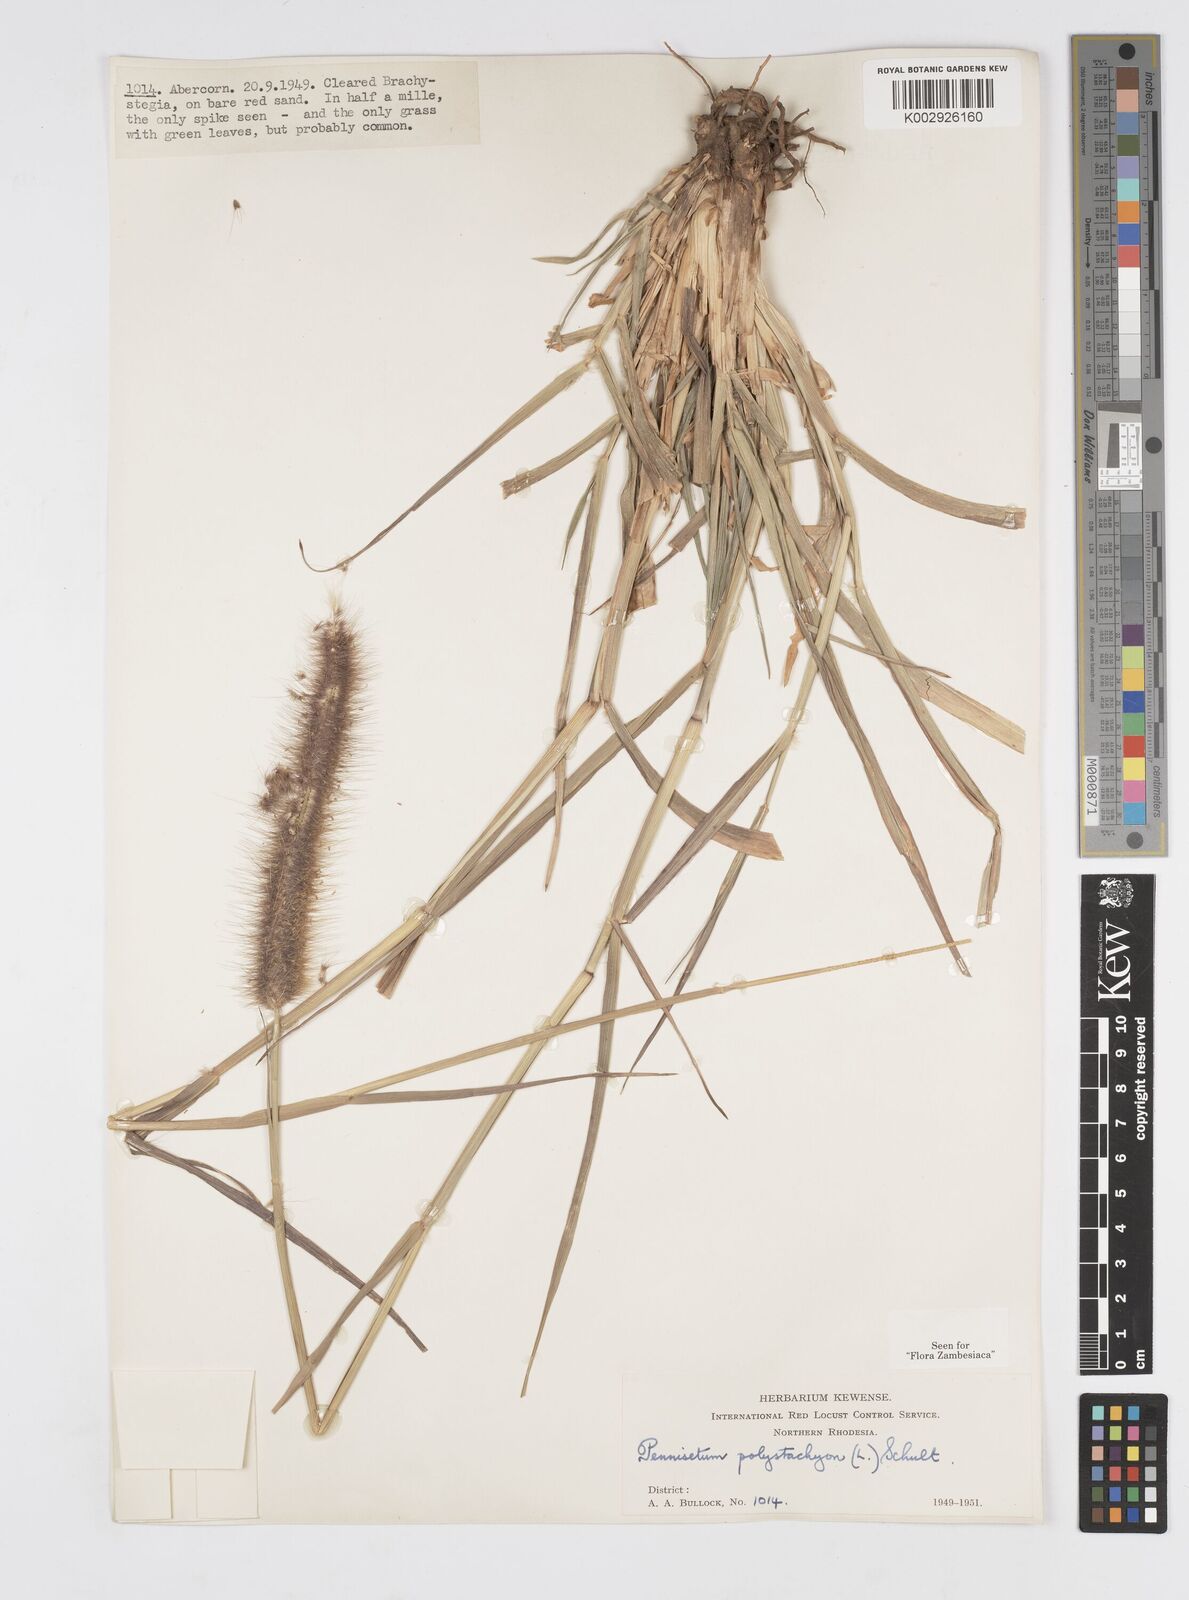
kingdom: Plantae
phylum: Tracheophyta
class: Liliopsida
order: Poales
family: Poaceae
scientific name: Poaceae
